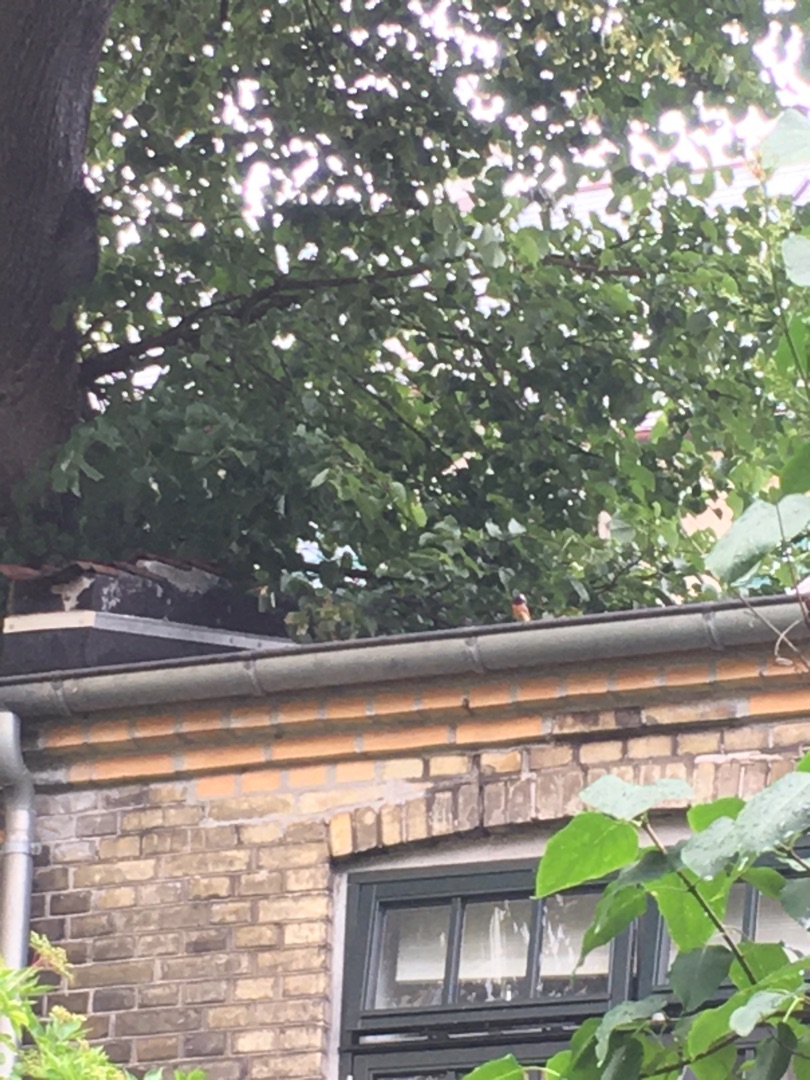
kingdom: Animalia
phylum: Chordata
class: Aves
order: Passeriformes
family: Muscicapidae
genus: Phoenicurus
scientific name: Phoenicurus phoenicurus
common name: Rødstjert
